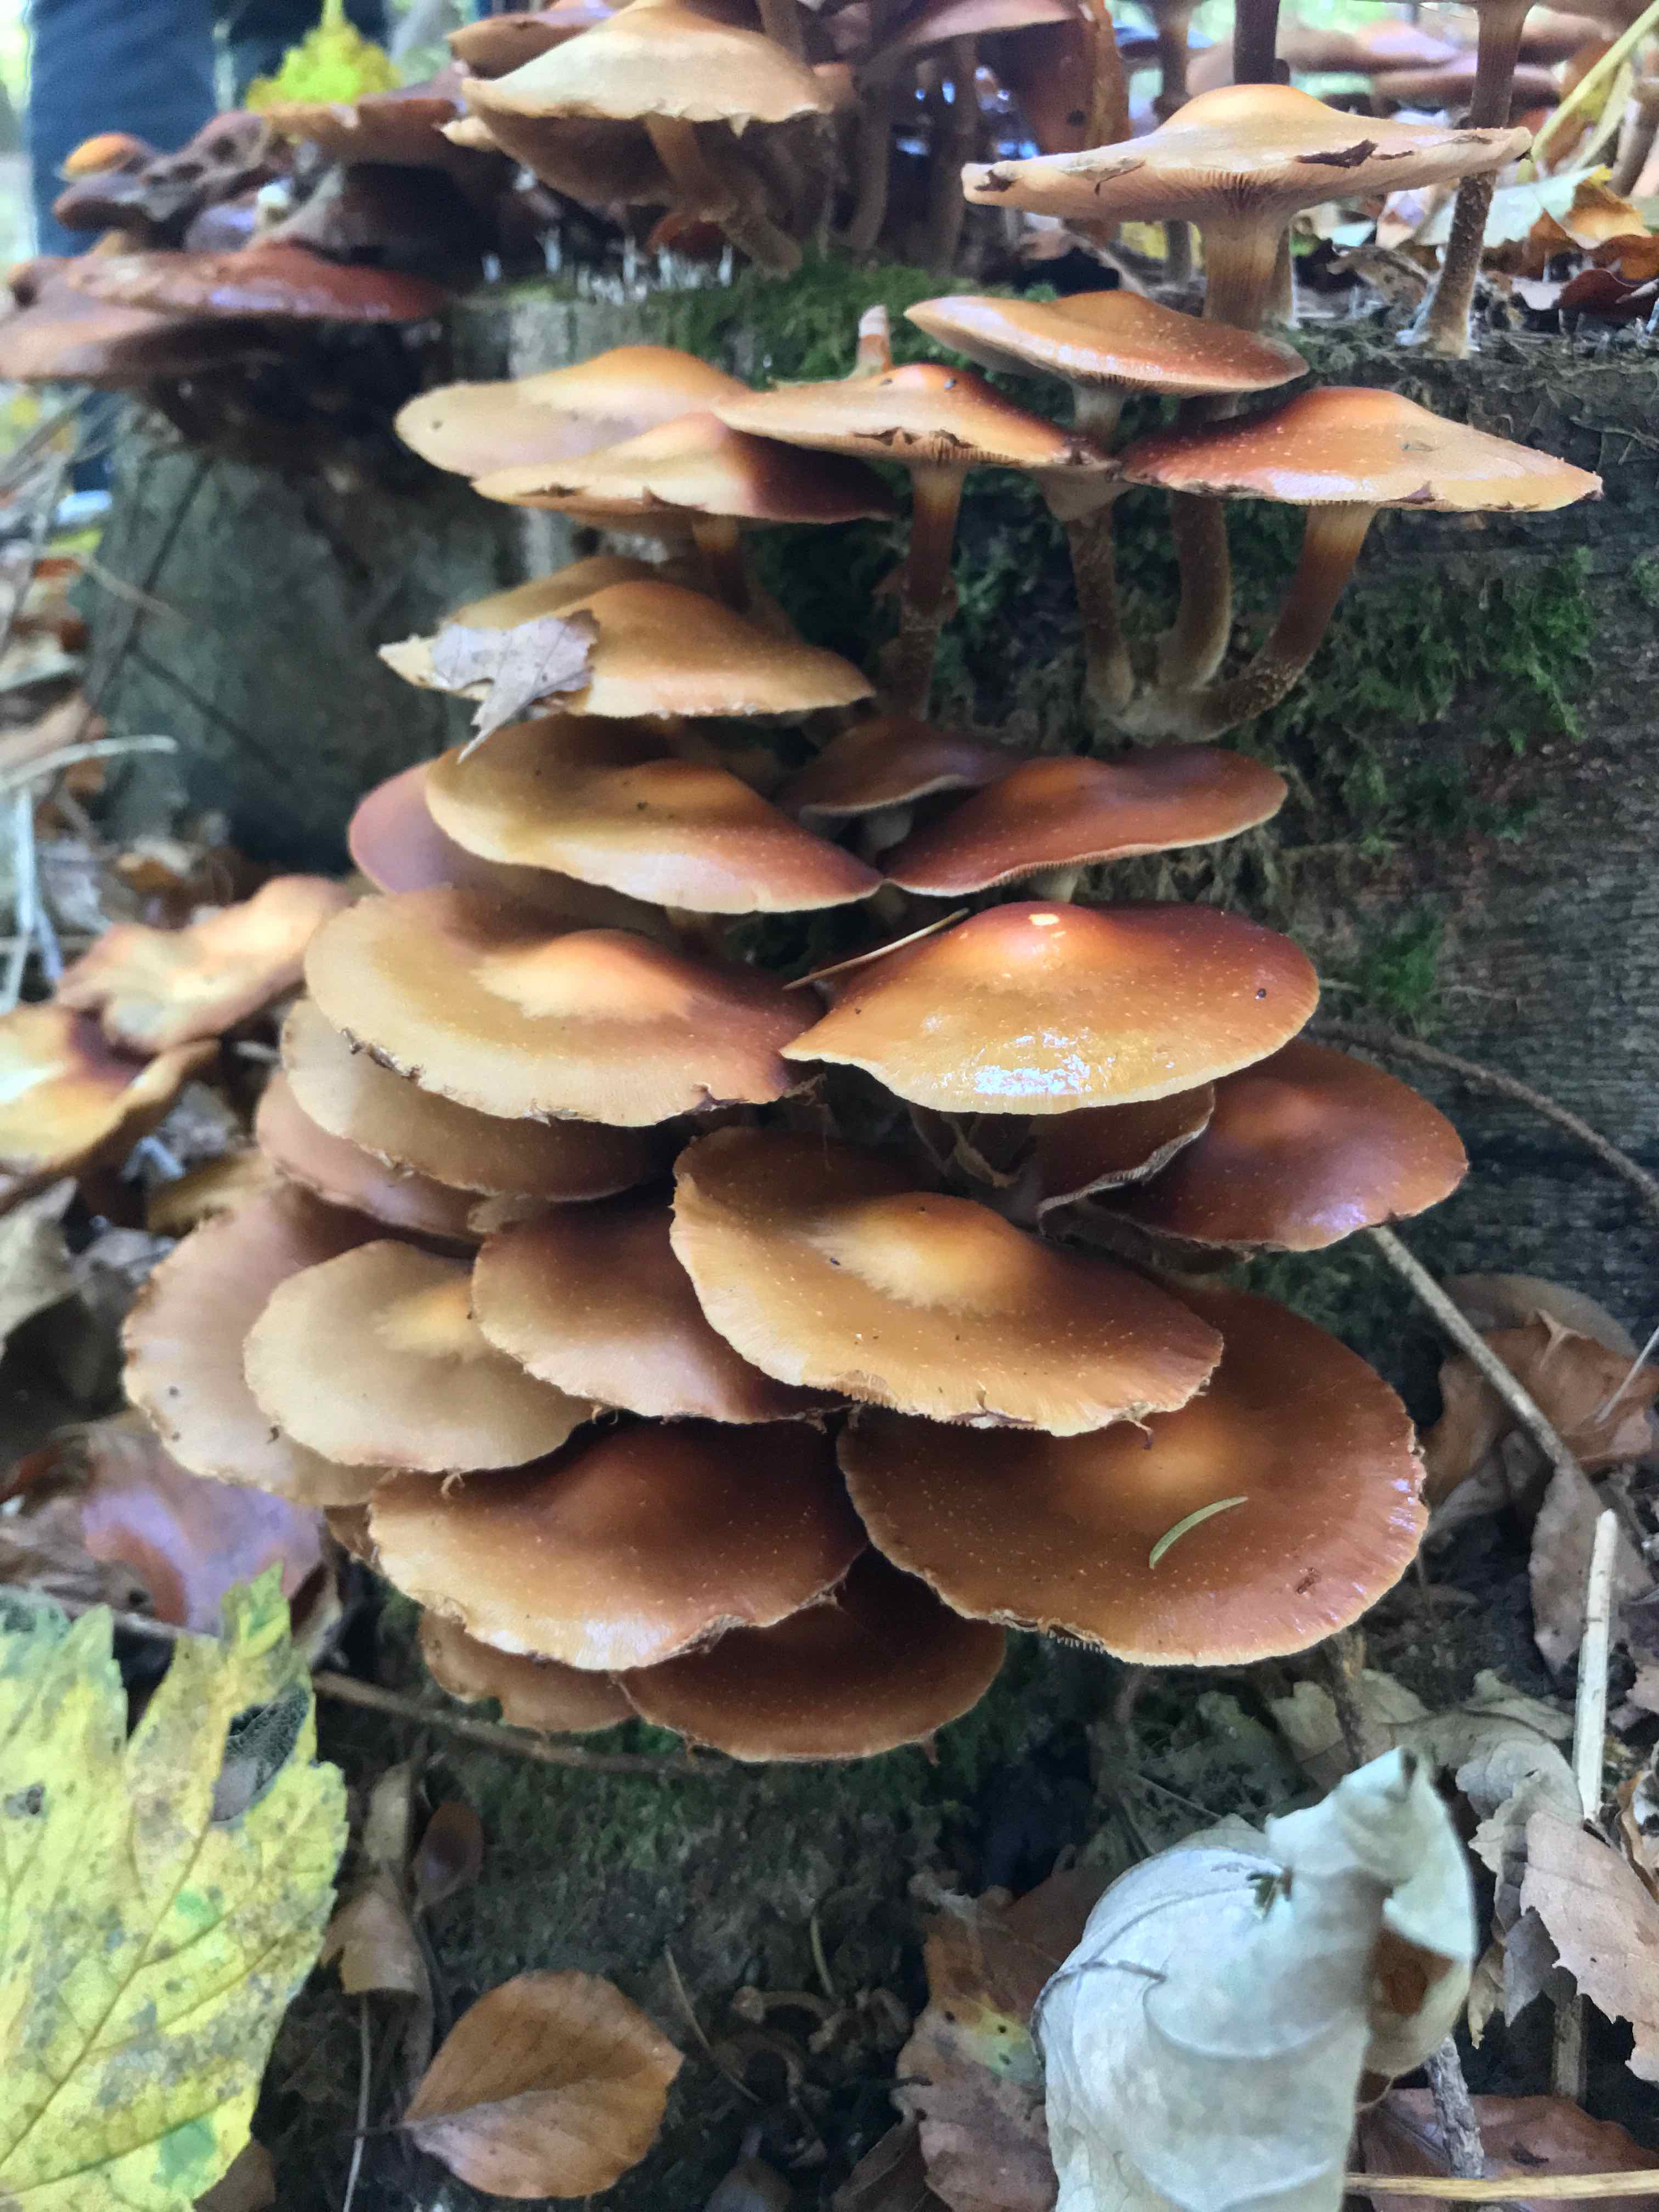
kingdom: Fungi
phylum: Basidiomycota
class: Agaricomycetes
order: Agaricales
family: Strophariaceae
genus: Kuehneromyces
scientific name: Kuehneromyces mutabilis
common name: foranderlig skælhat
